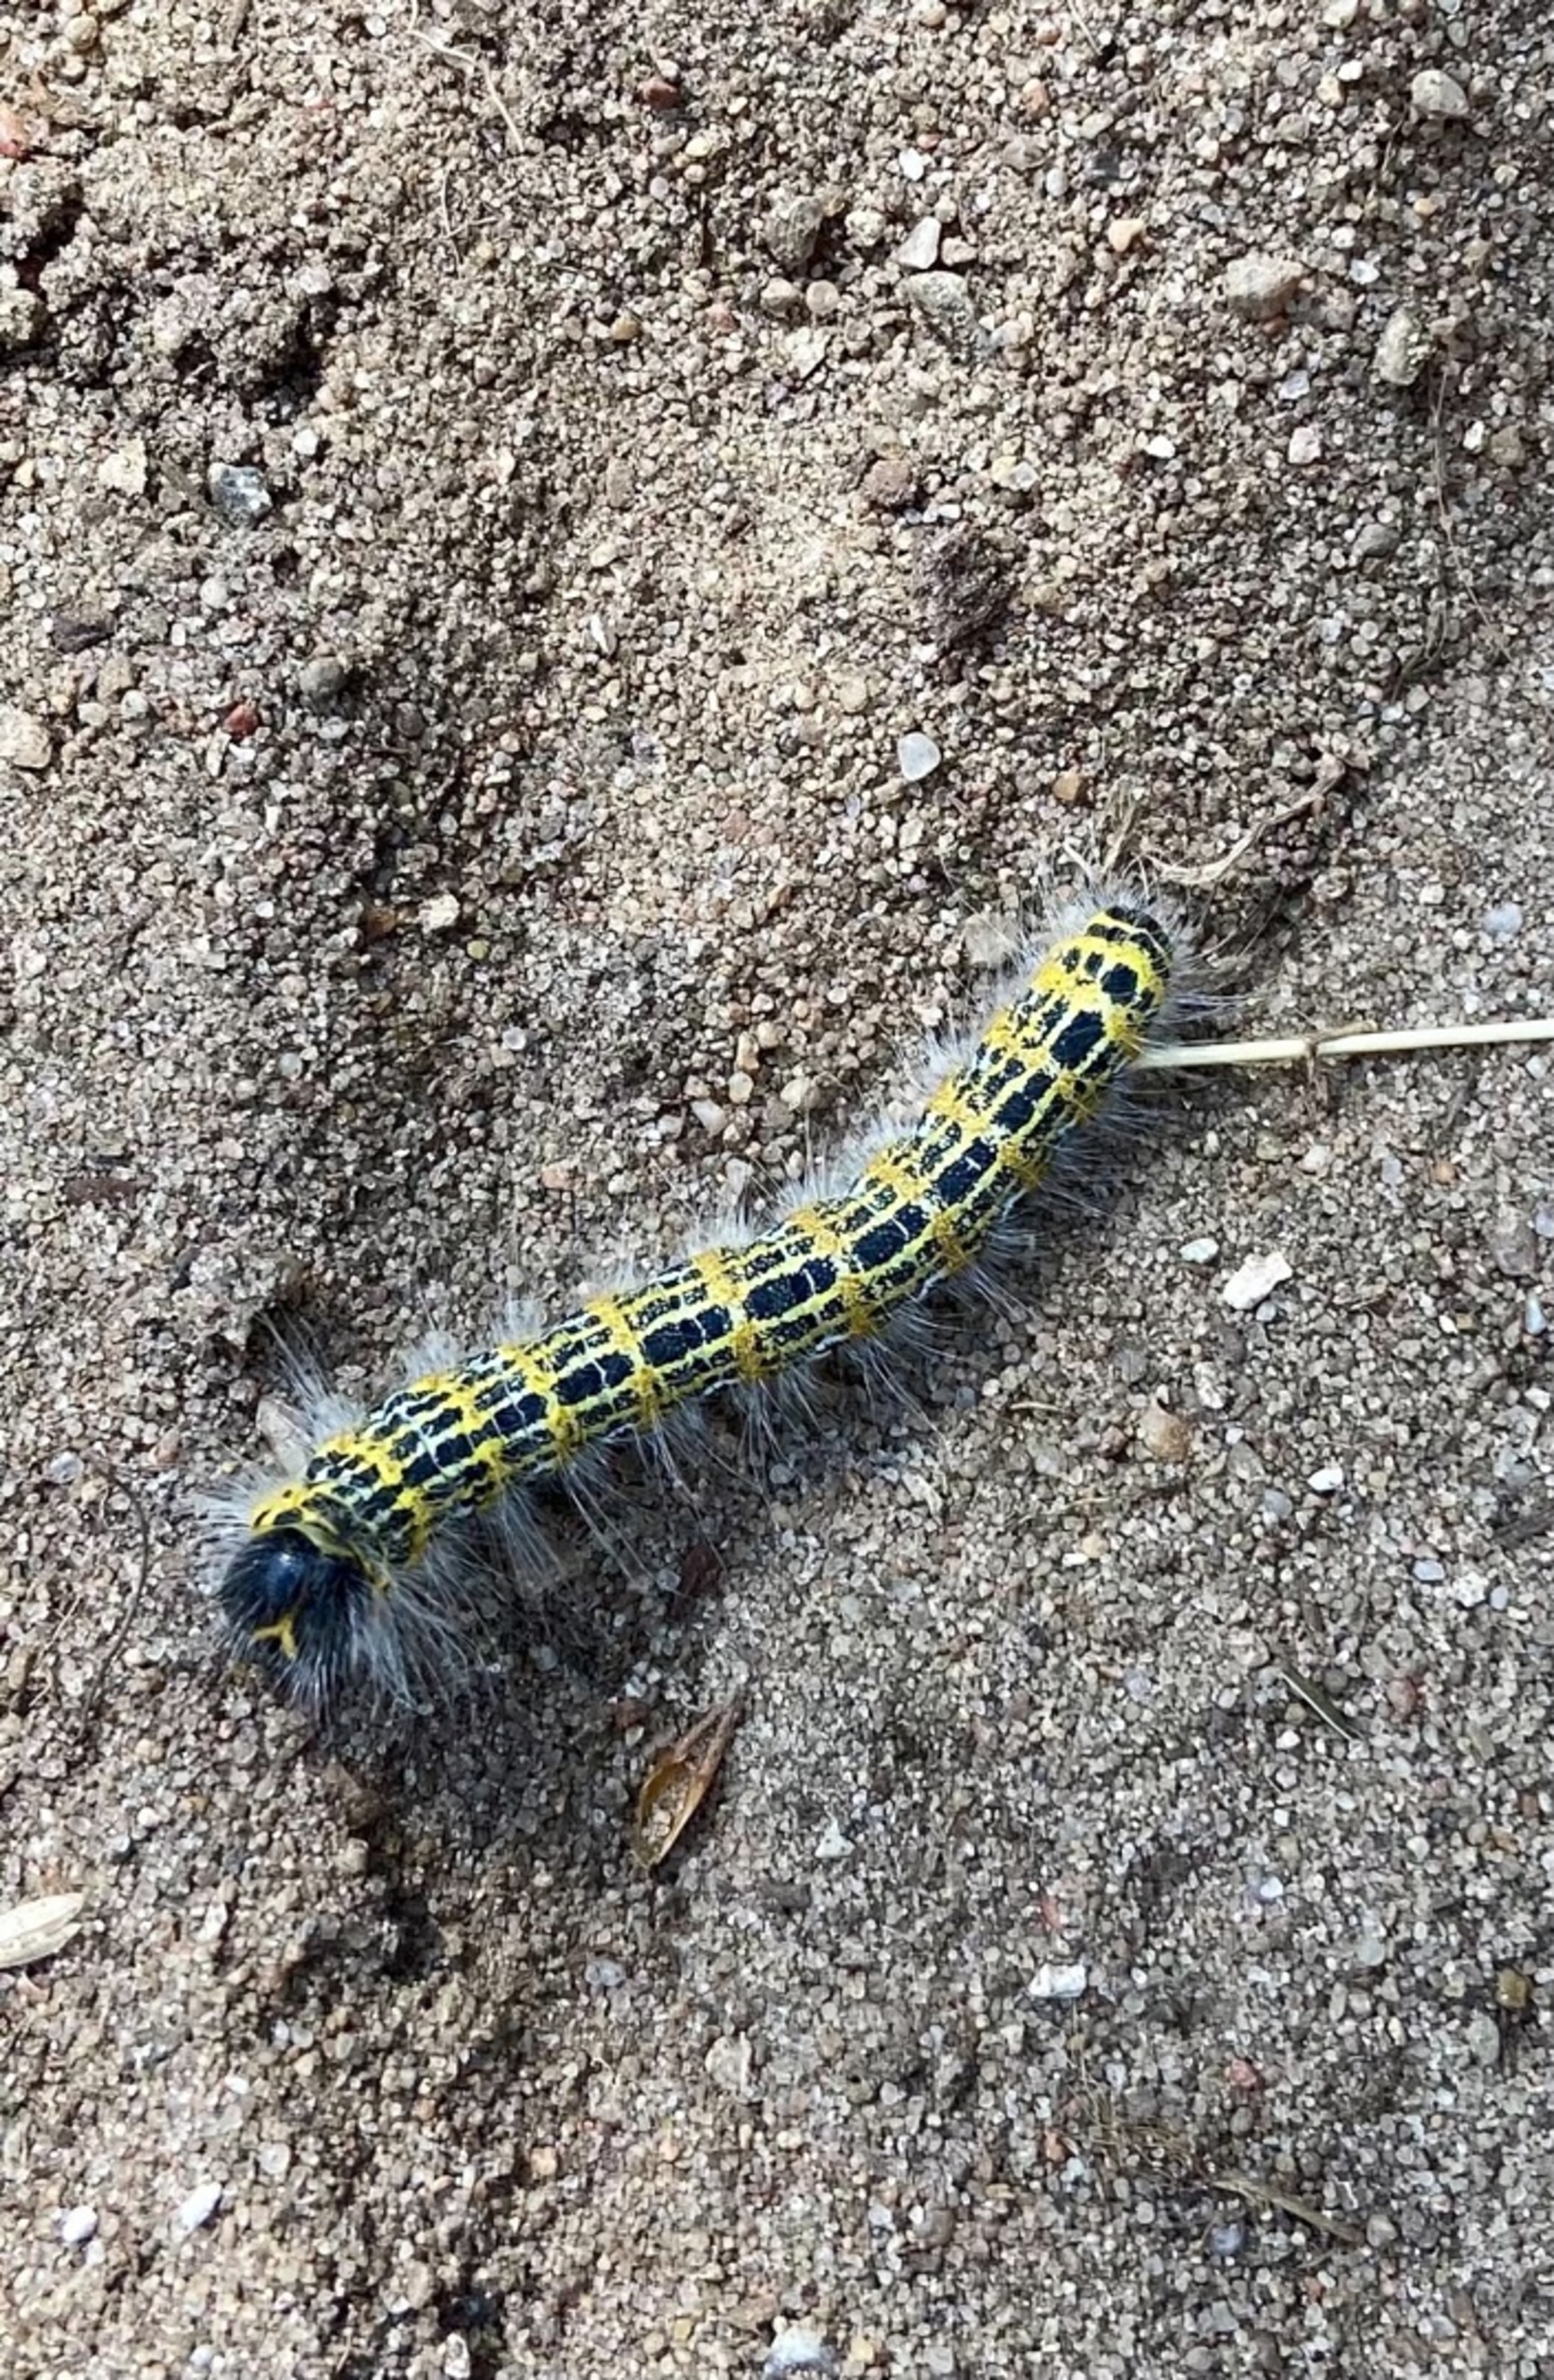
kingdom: Animalia
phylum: Arthropoda
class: Insecta
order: Lepidoptera
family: Notodontidae
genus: Phalera
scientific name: Phalera bucephala
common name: Måneplet
